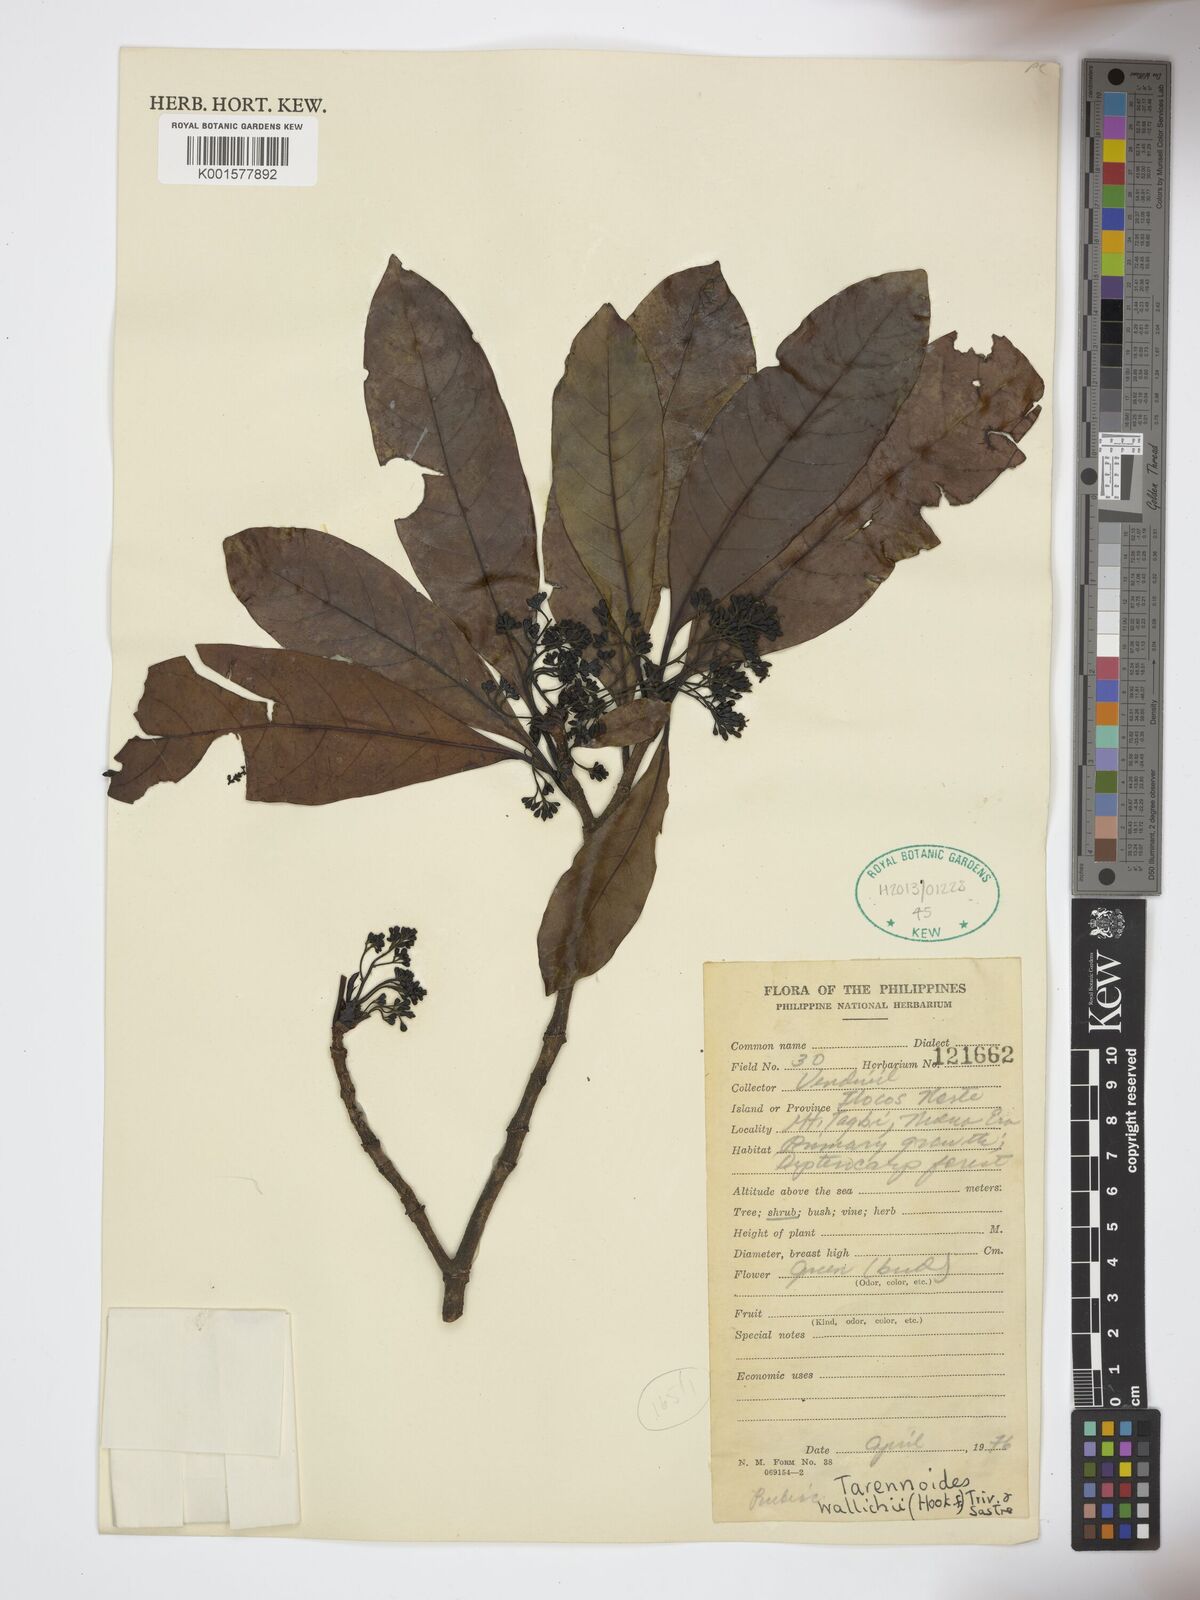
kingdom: Plantae
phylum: Tracheophyta
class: Magnoliopsida
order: Gentianales
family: Rubiaceae
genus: Tarennoidea
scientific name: Tarennoidea wallichii
